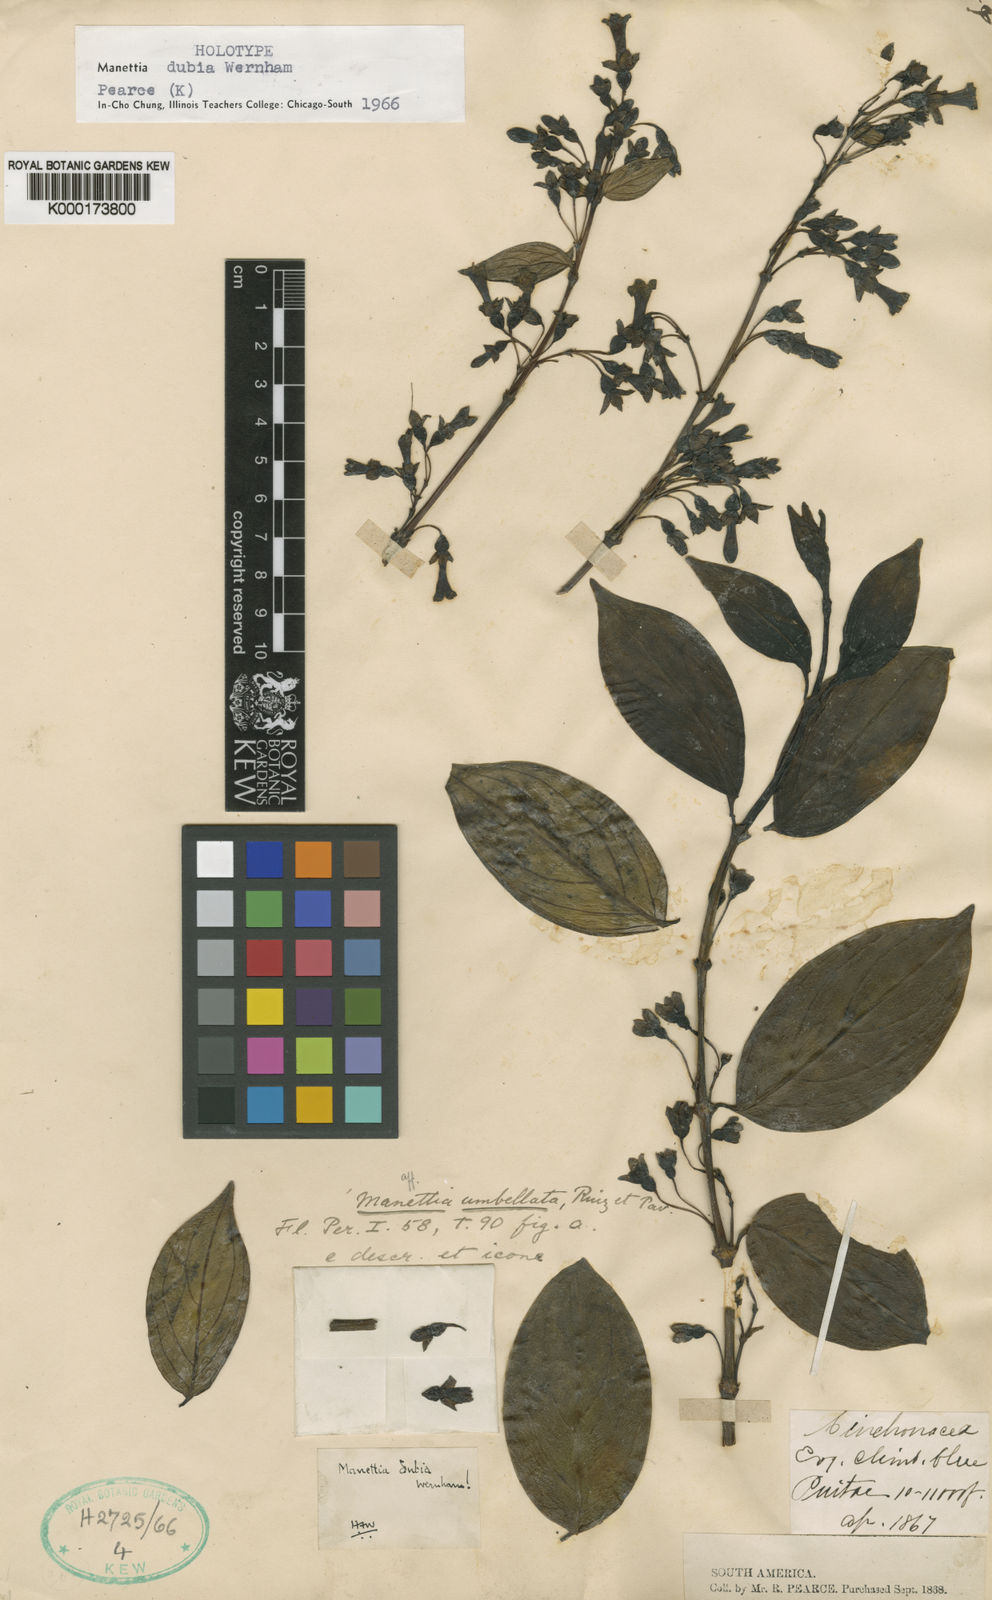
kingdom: Plantae
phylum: Tracheophyta
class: Magnoliopsida
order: Gentianales
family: Rubiaceae
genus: Manettia
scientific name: Manettia dubia
